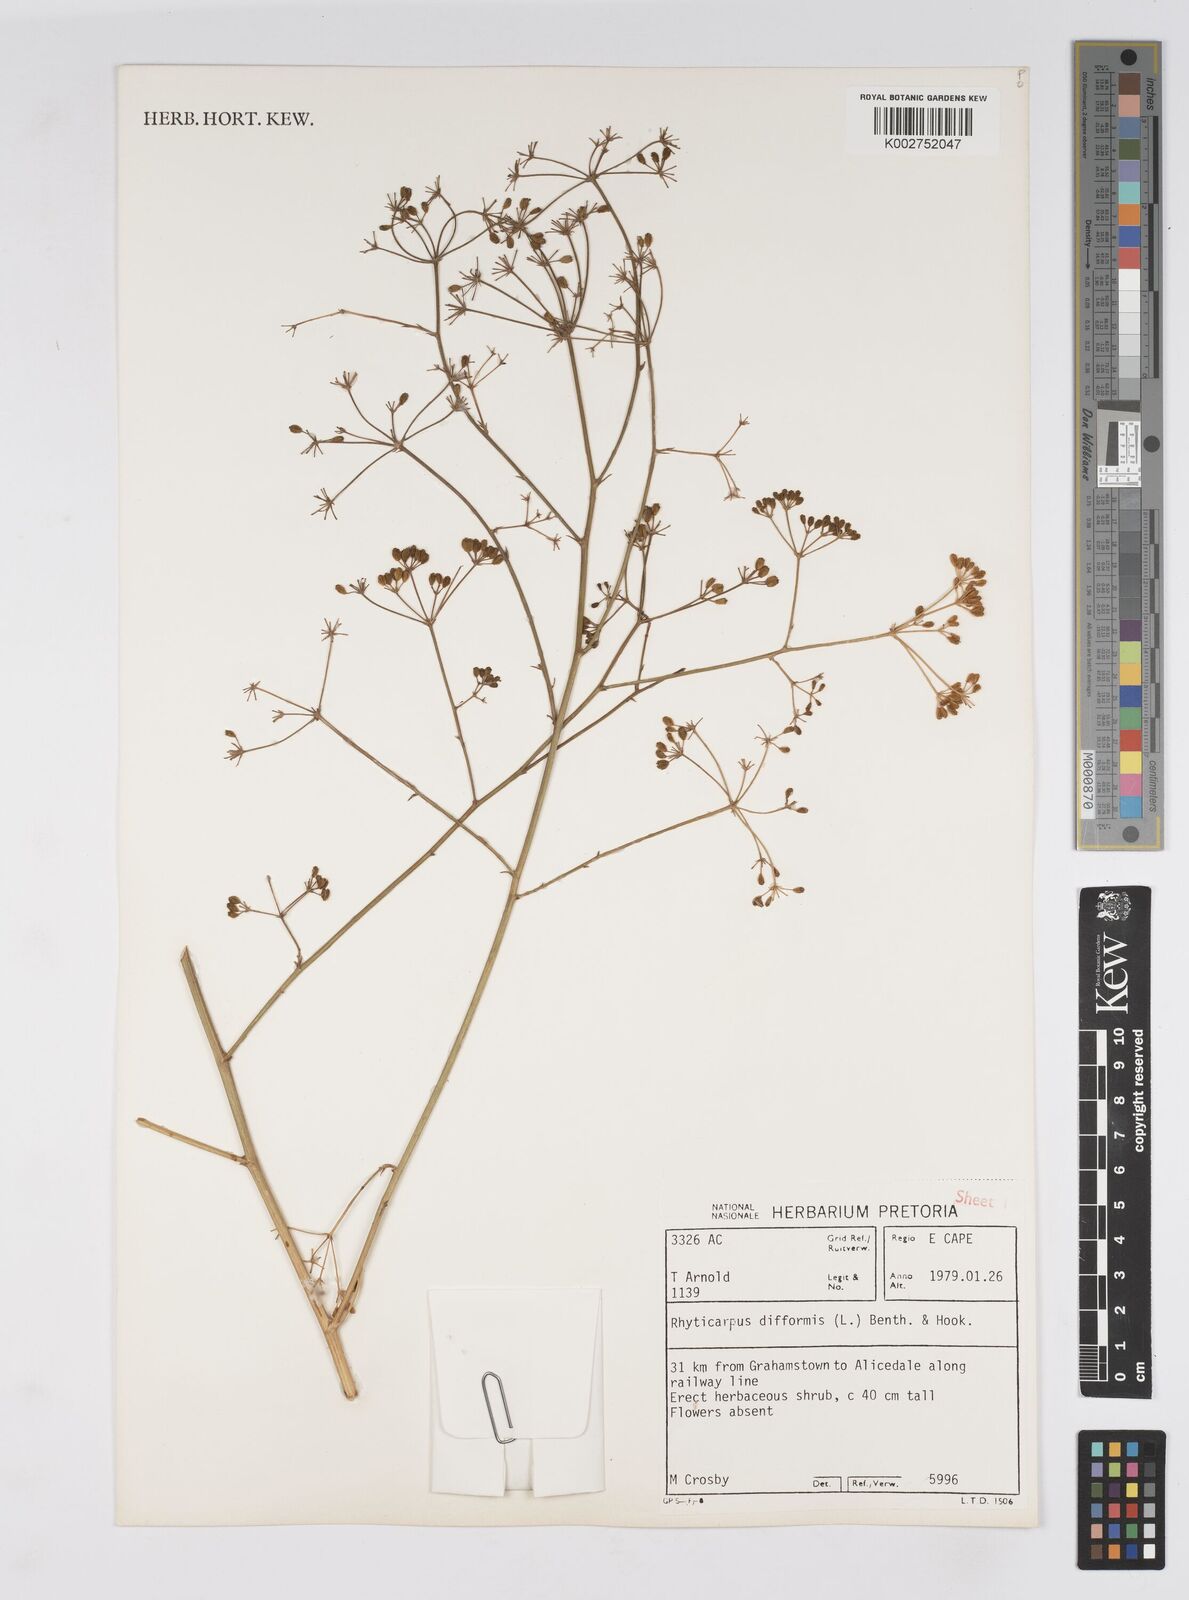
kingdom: Plantae
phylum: Tracheophyta
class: Magnoliopsida
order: Apiales
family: Apiaceae
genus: Anginon
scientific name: Anginon fruticosum
